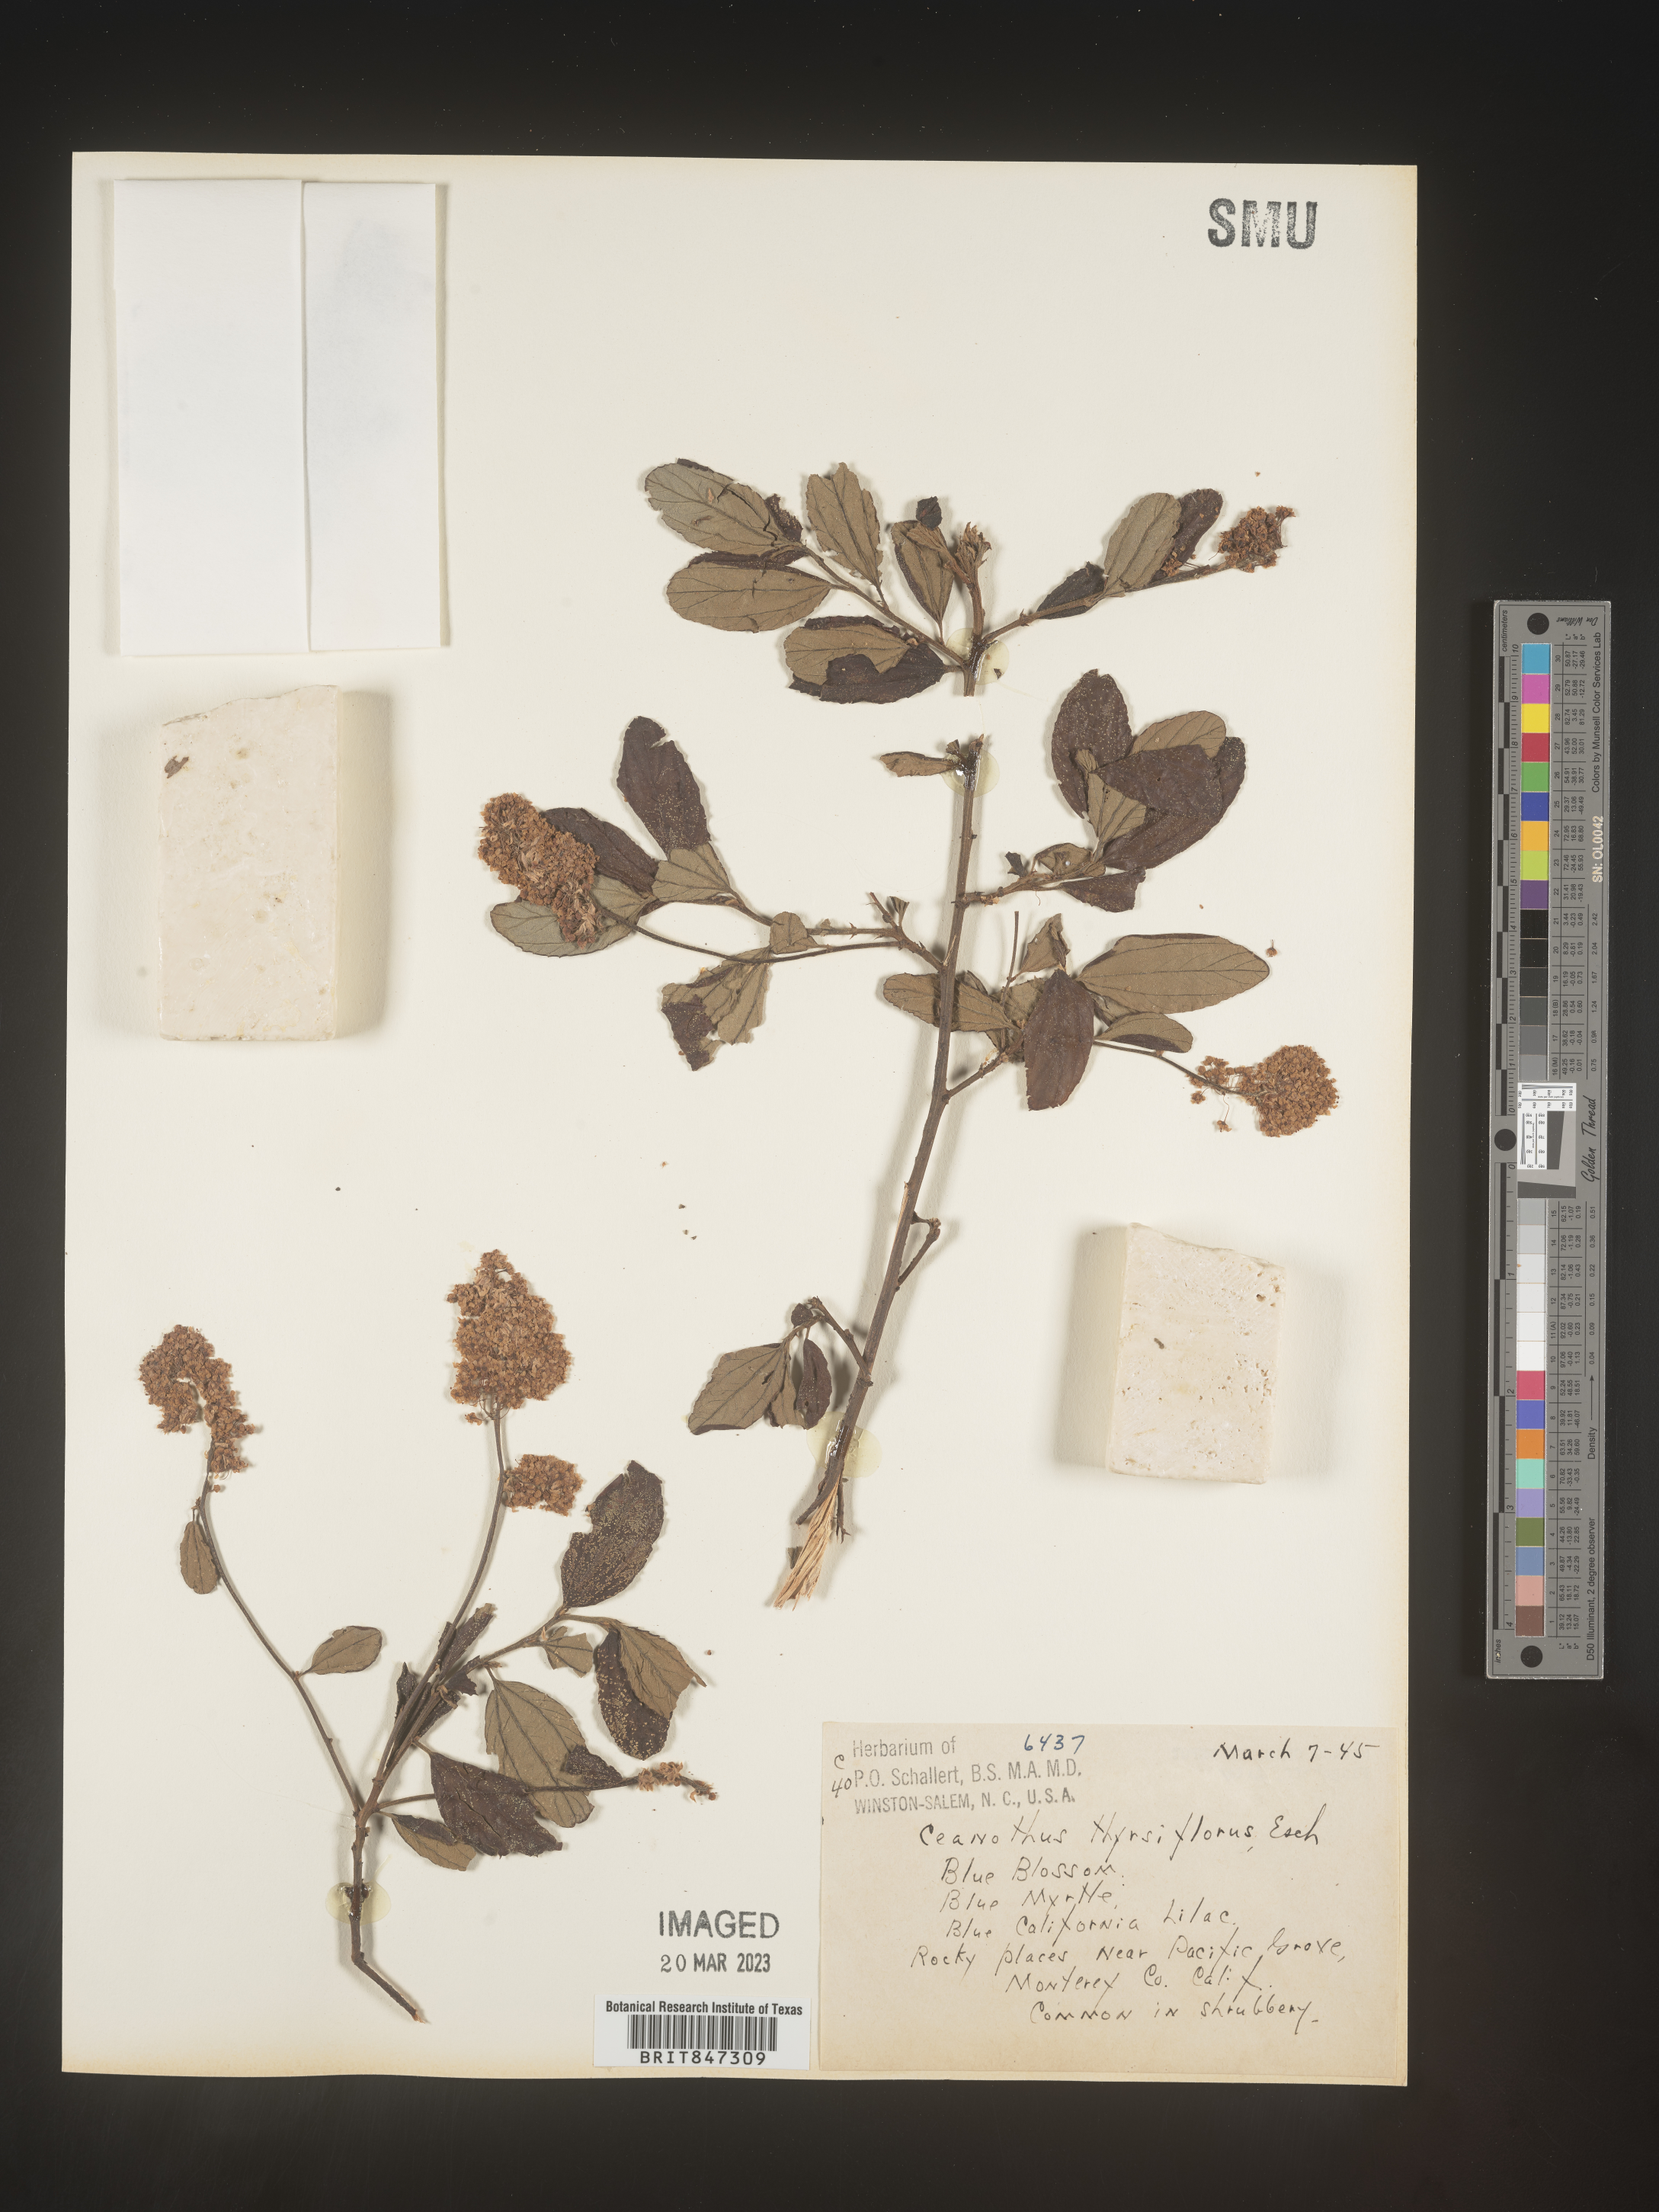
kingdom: Plantae
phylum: Tracheophyta
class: Magnoliopsida
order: Rosales
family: Rhamnaceae
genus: Ceanothus
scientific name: Ceanothus
